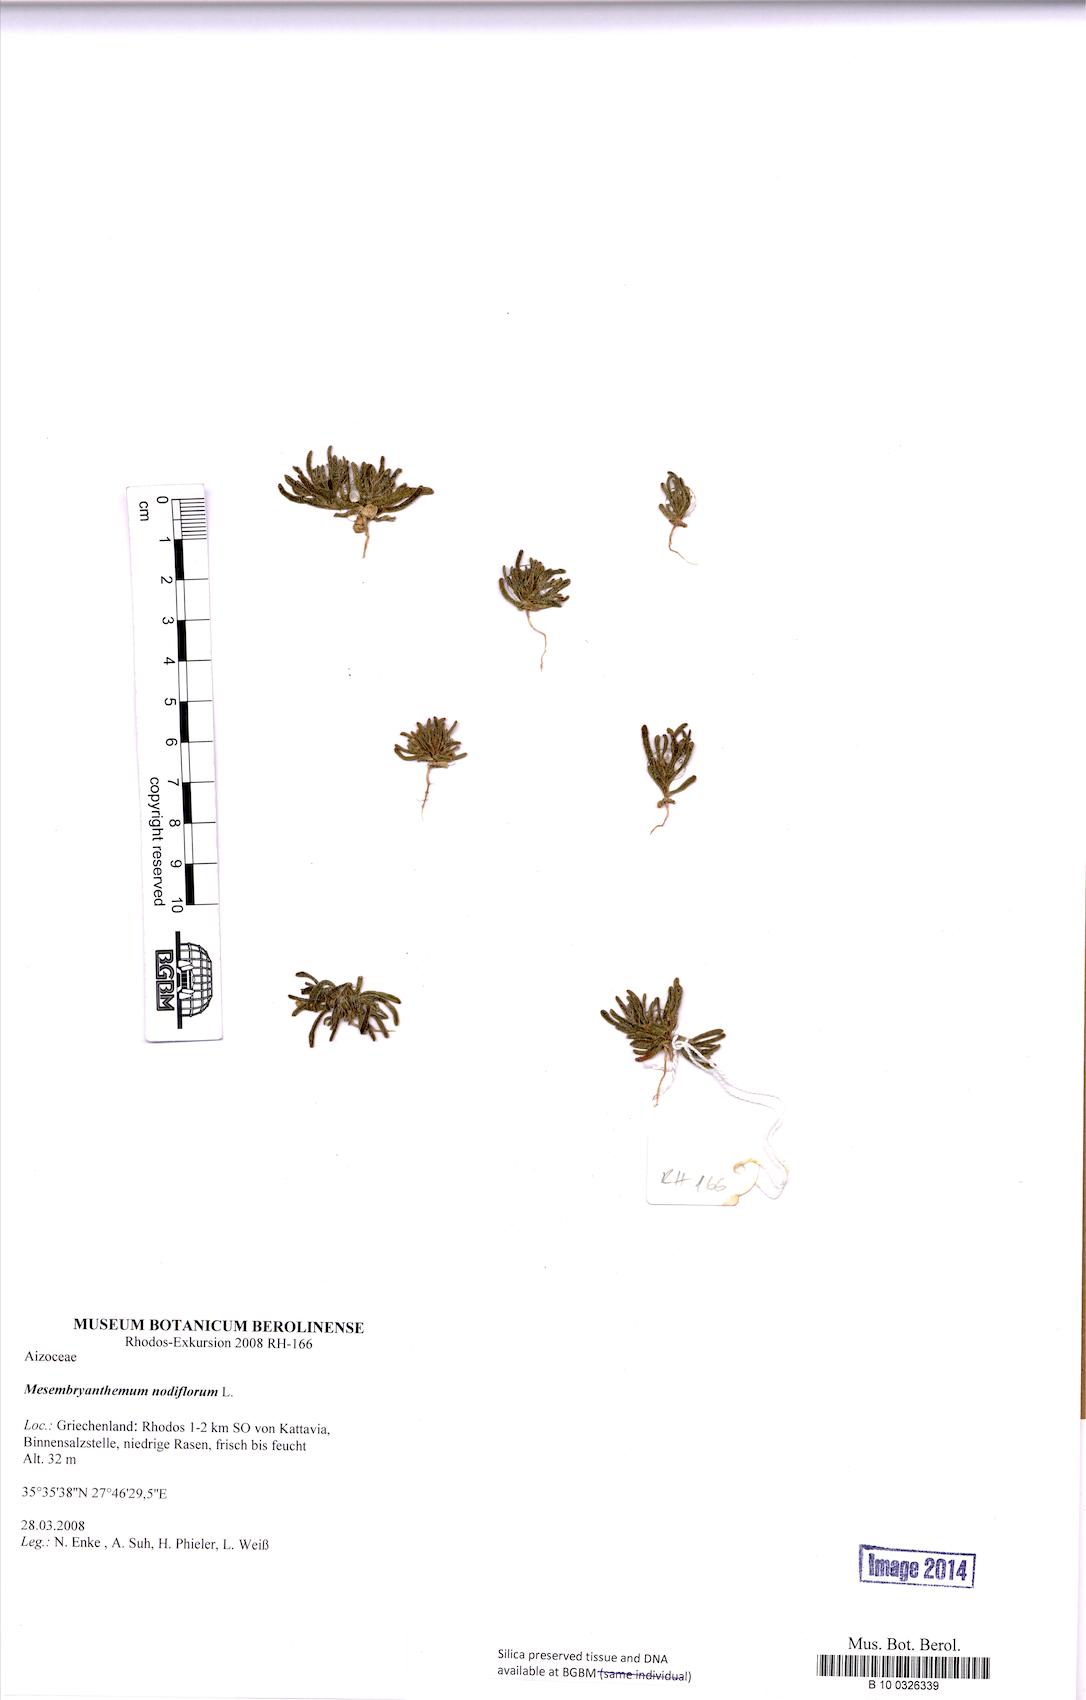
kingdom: Plantae
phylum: Tracheophyta
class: Magnoliopsida
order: Caryophyllales
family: Aizoaceae
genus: Mesembryanthemum
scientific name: Mesembryanthemum nodiflorum
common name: Slenderleaf iceplant
